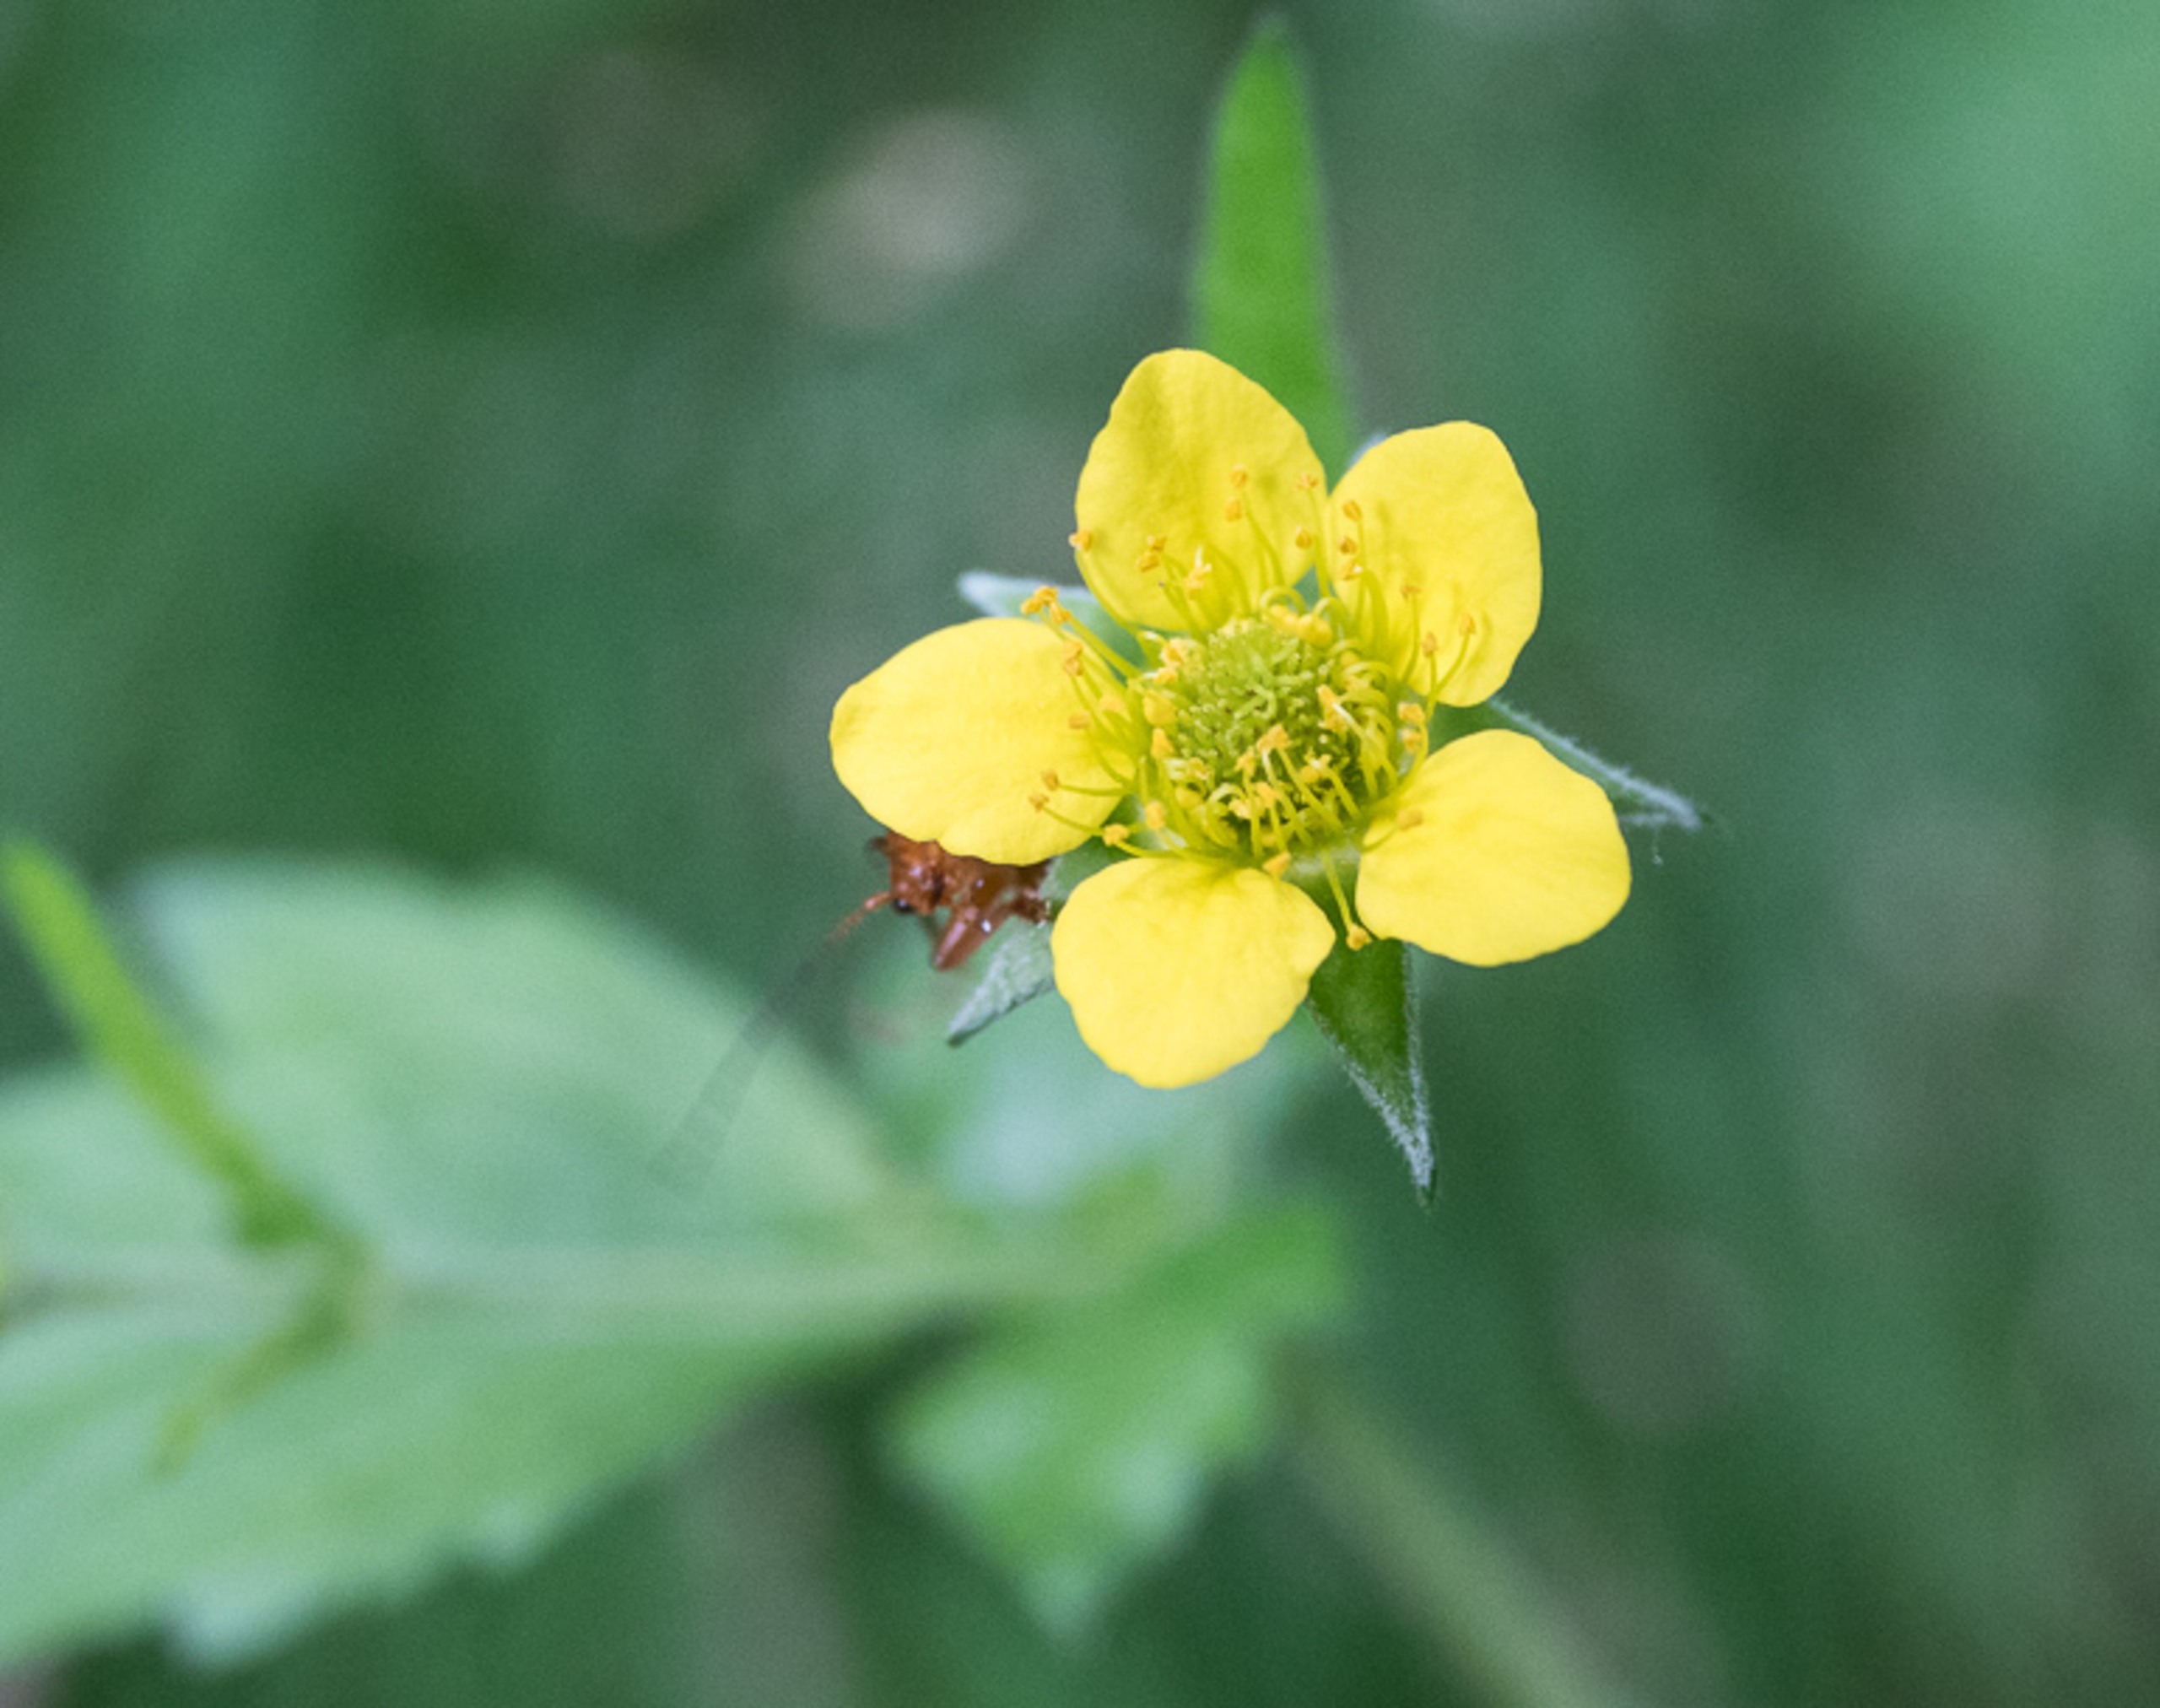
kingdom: Plantae
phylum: Tracheophyta
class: Magnoliopsida
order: Rosales
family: Rosaceae
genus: Geum
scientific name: Geum urbanum
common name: Feber-nellikerod
